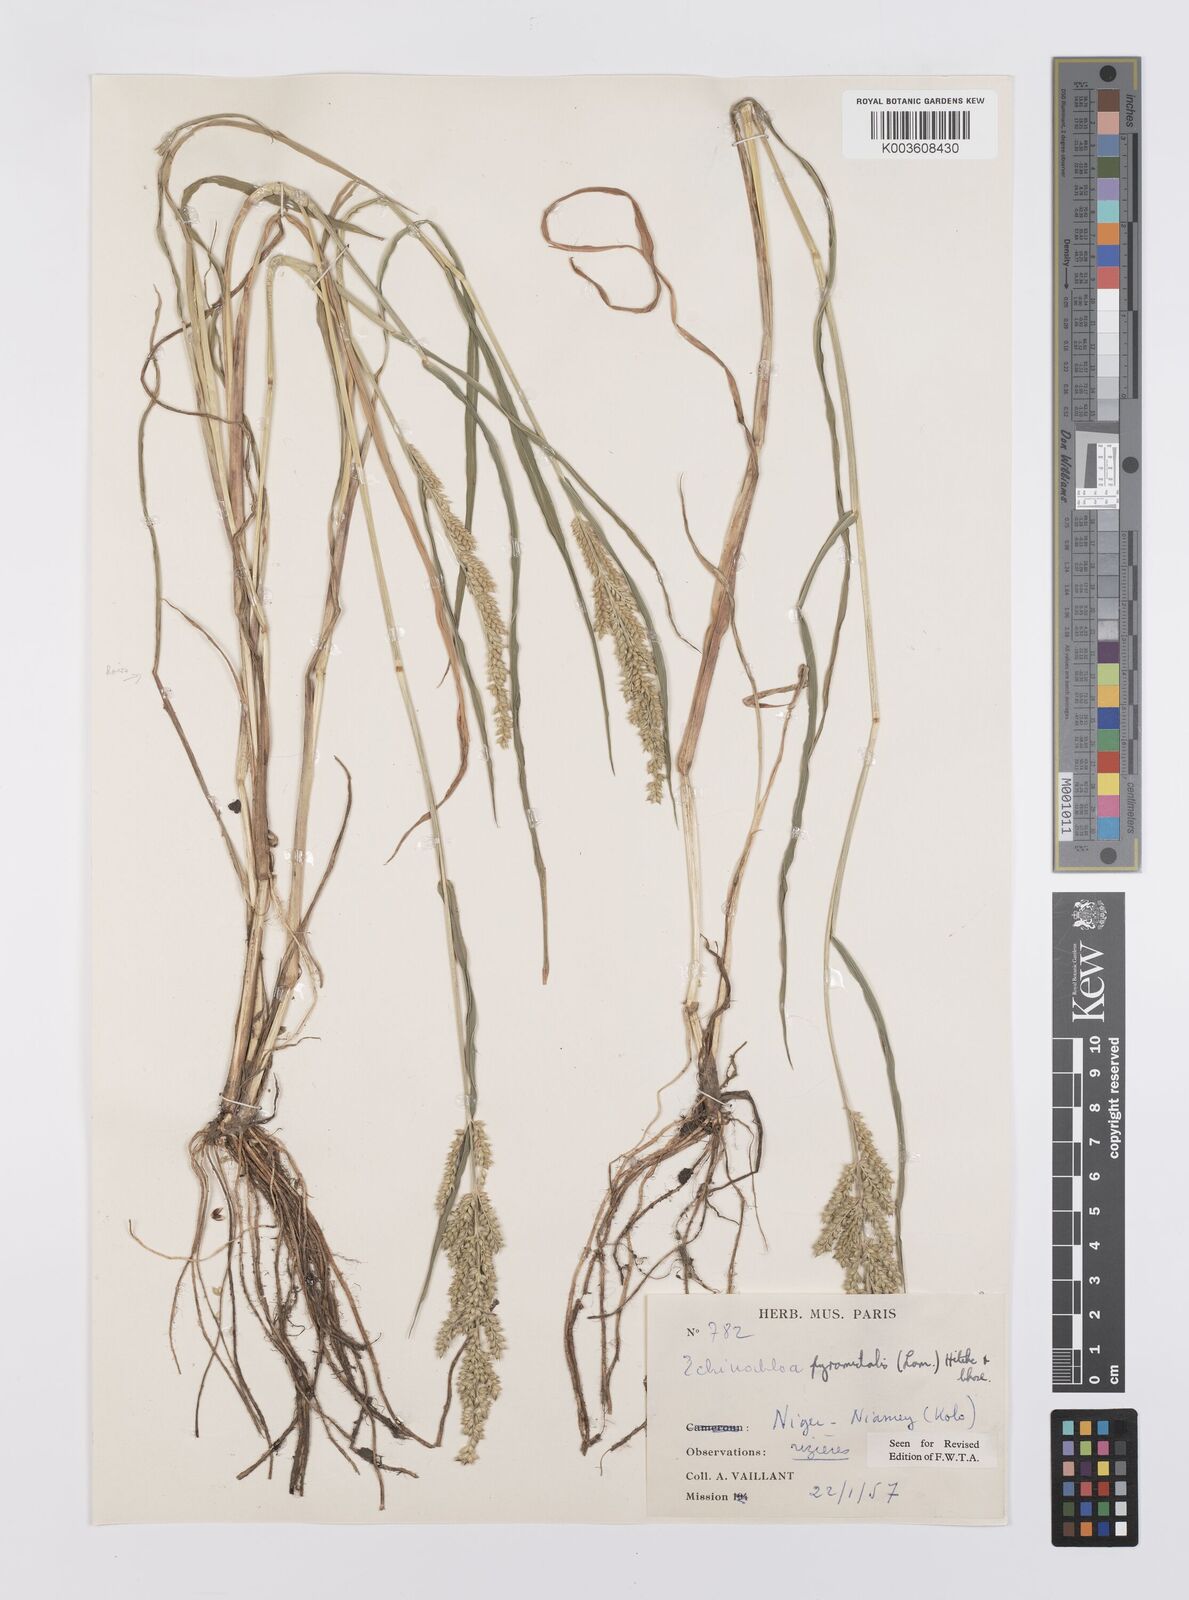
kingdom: Plantae
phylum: Tracheophyta
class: Liliopsida
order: Poales
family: Poaceae
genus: Echinochloa
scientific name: Echinochloa pyramidalis
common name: Antelope grass
